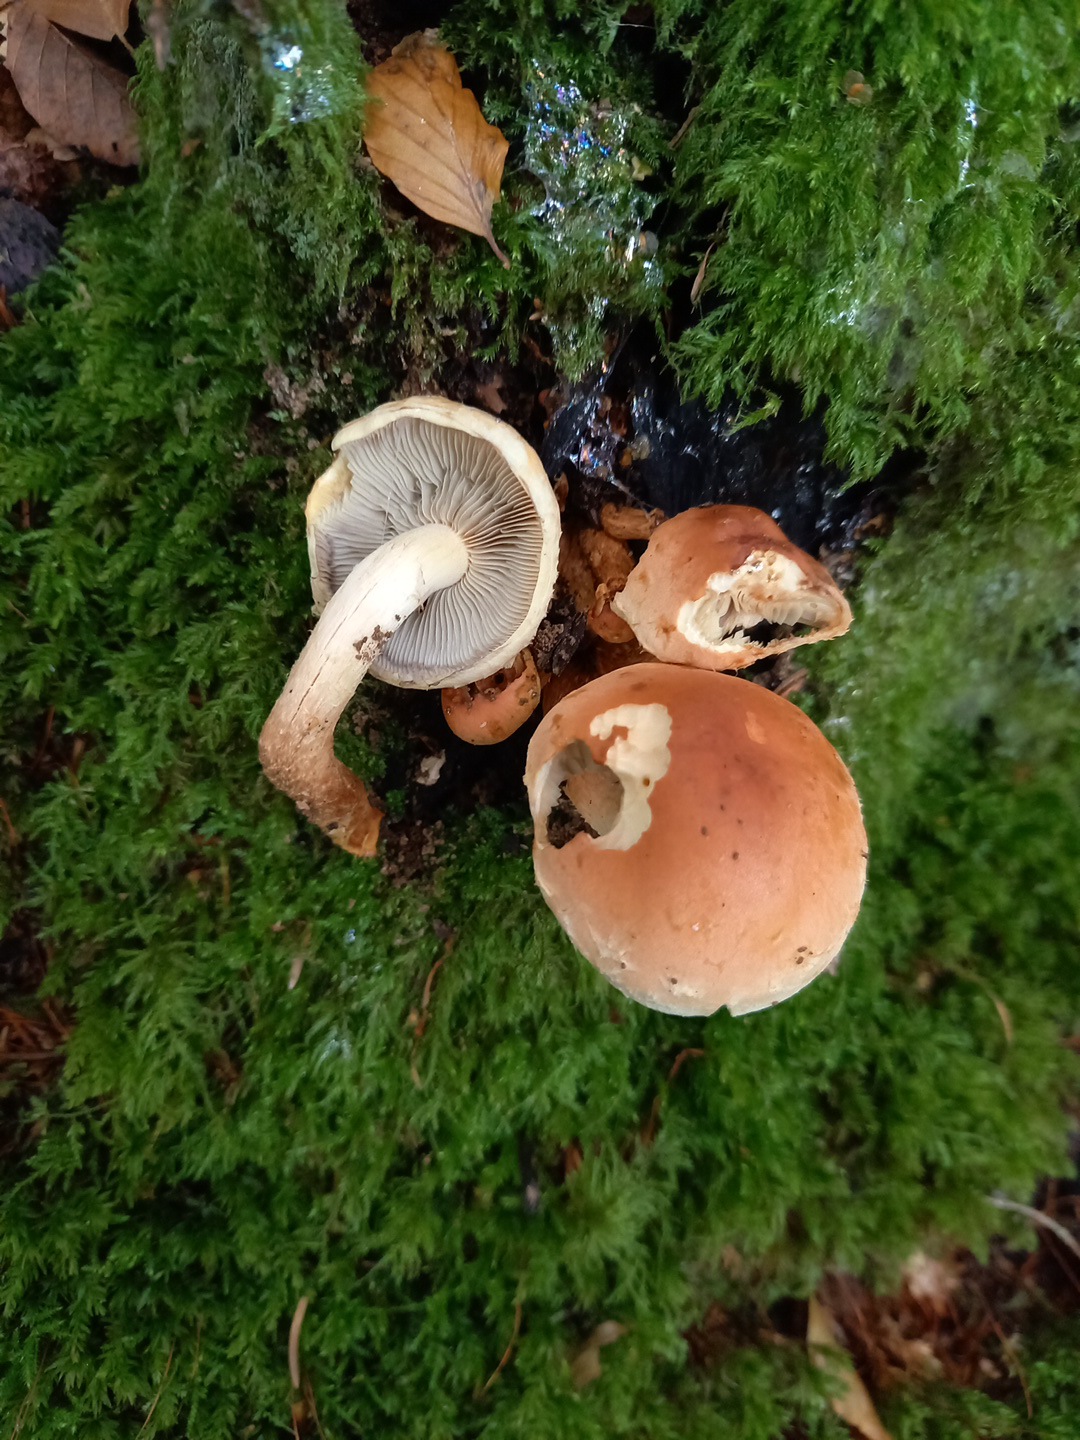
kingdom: Fungi
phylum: Basidiomycota
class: Agaricomycetes
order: Agaricales
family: Strophariaceae
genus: Hypholoma
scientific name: Hypholoma lateritium
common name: teglrød svovlhat
